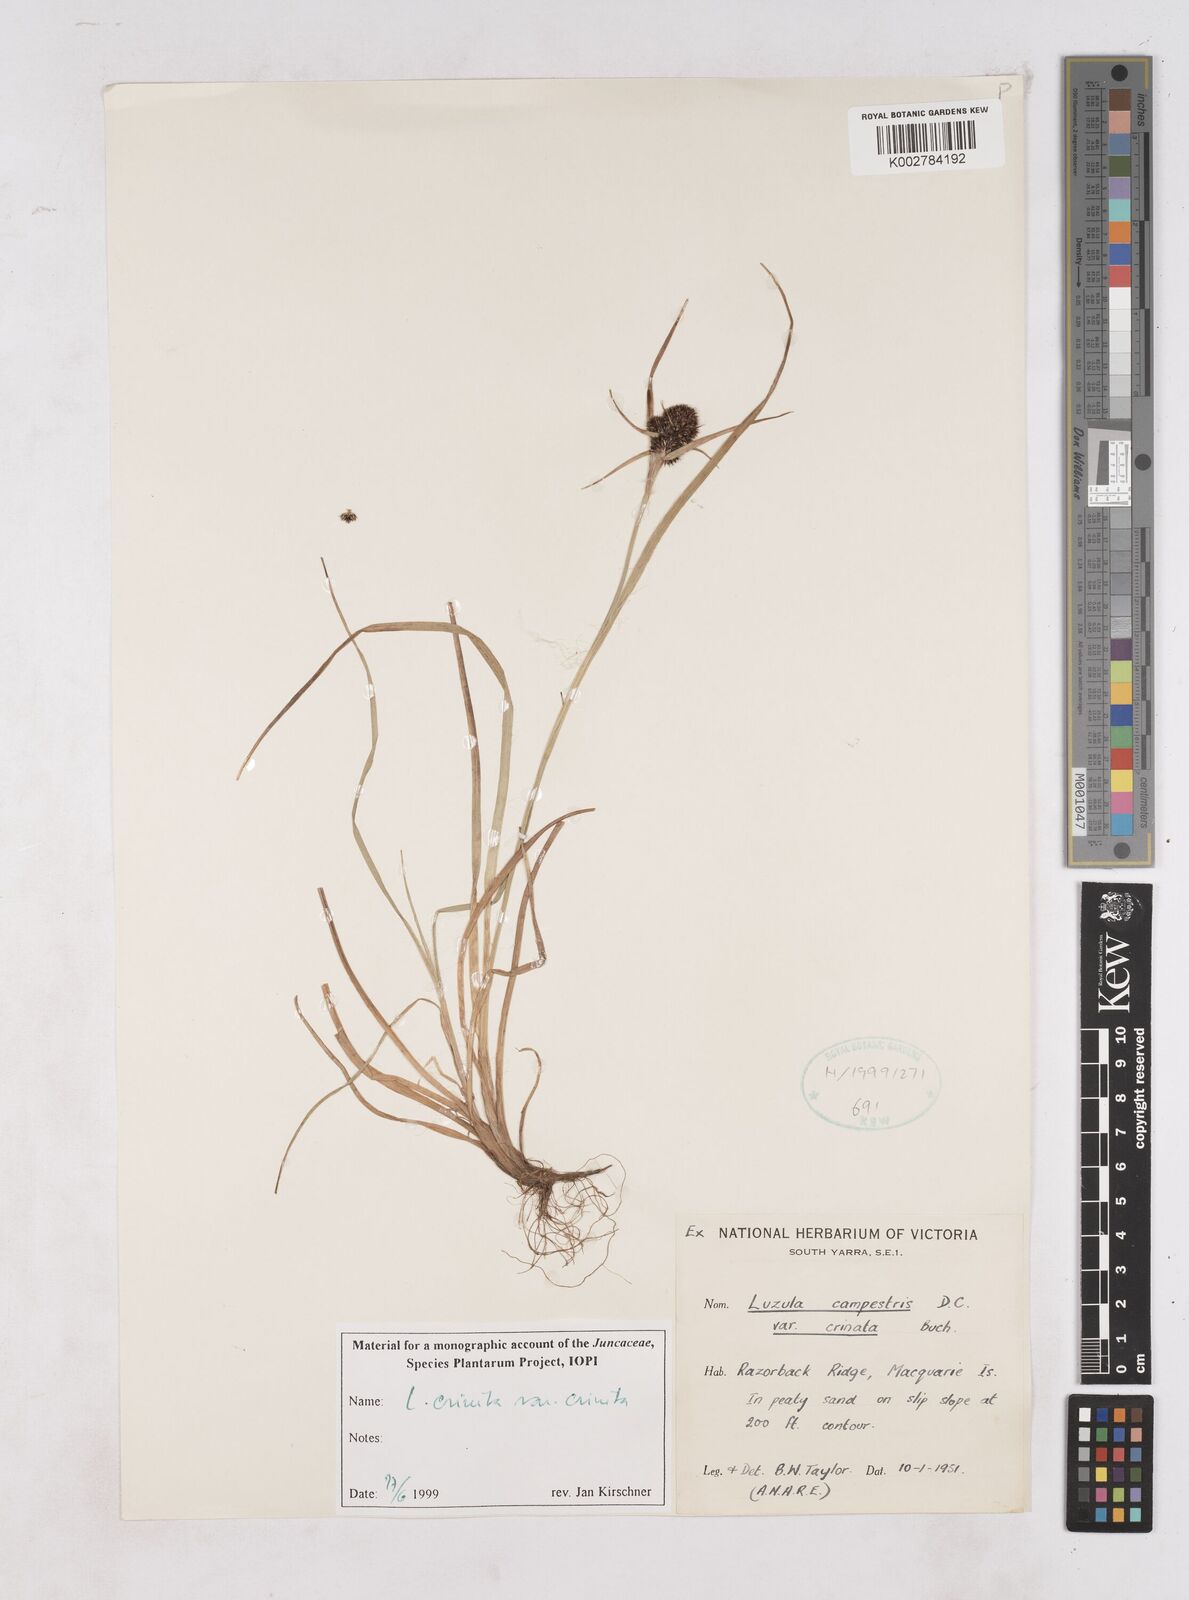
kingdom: Plantae
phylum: Tracheophyta
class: Liliopsida
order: Poales
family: Juncaceae
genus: Luzula
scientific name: Luzula campestris
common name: Field wood-rush
